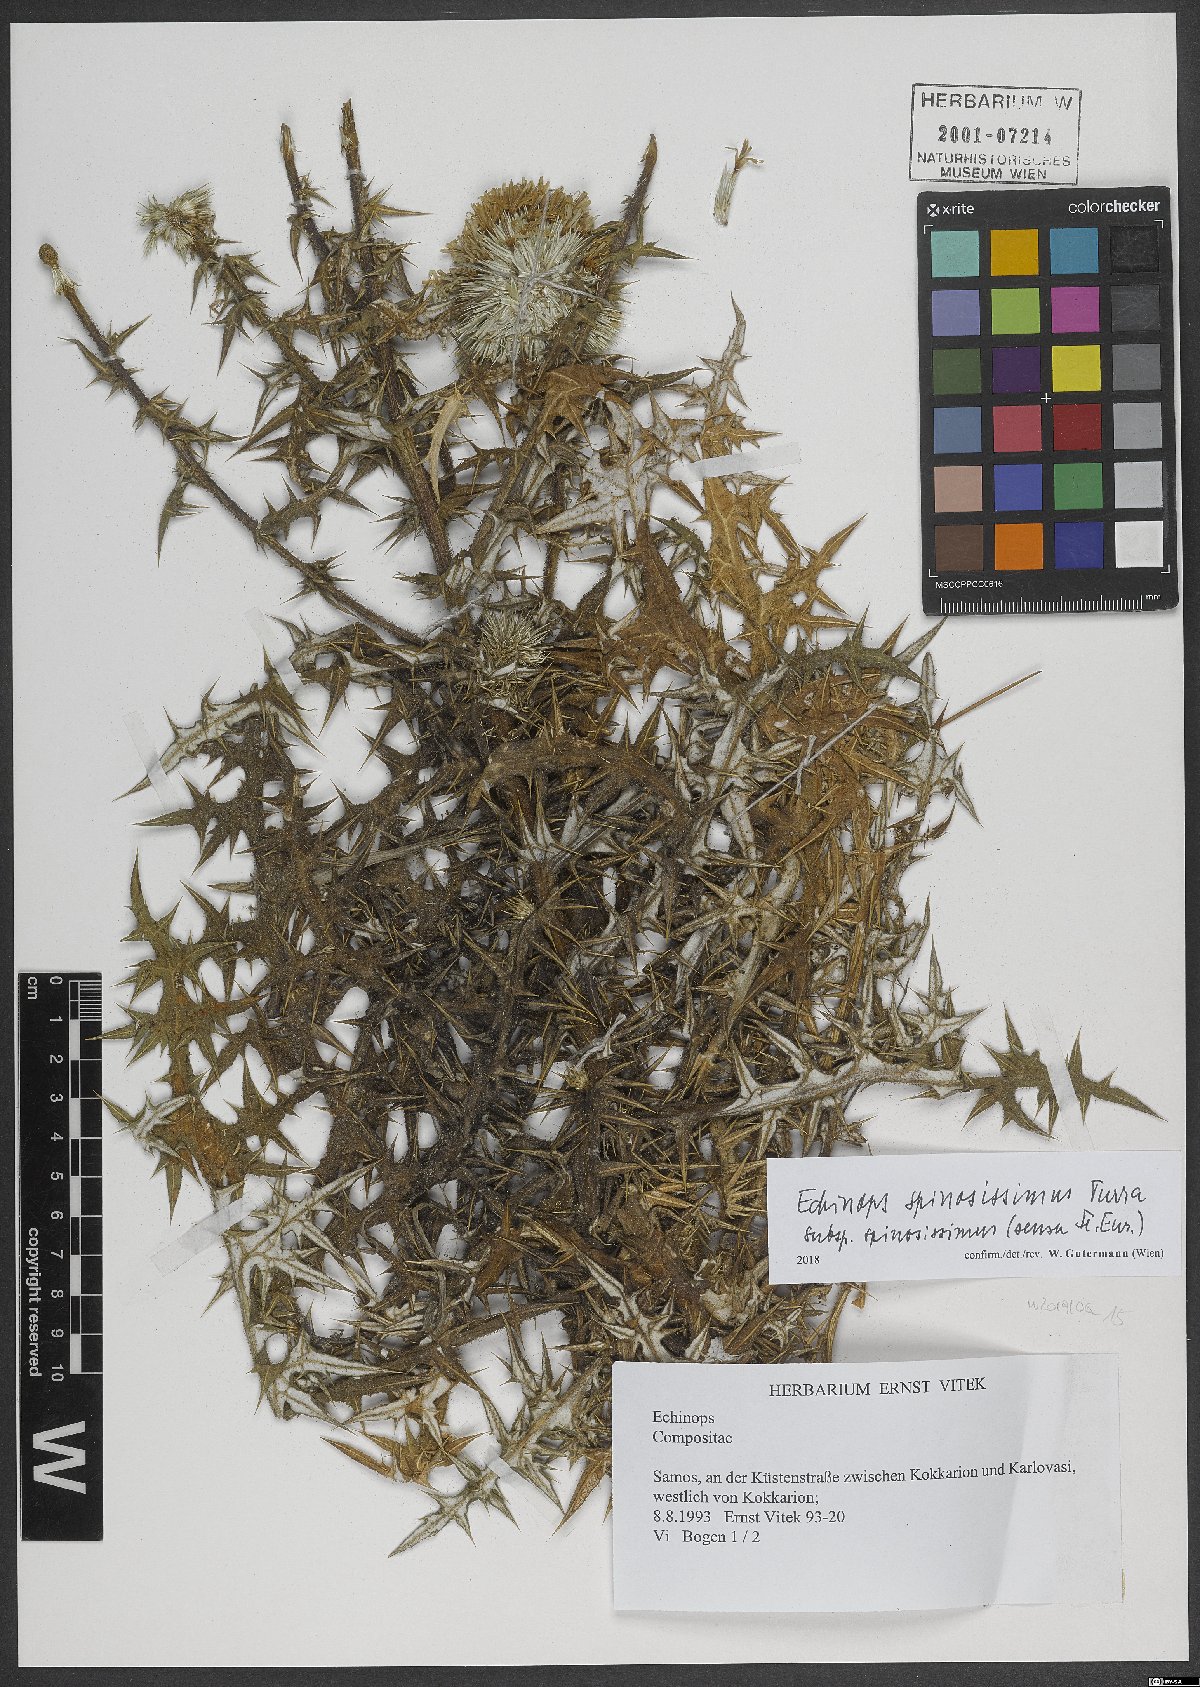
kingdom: Plantae
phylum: Tracheophyta
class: Magnoliopsida
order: Asterales
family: Asteraceae
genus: Echinops
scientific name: Echinops spinosissimus
